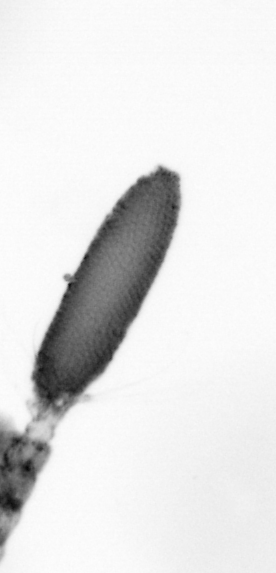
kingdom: Animalia
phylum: Arthropoda
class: Copepoda
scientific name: Copepoda
